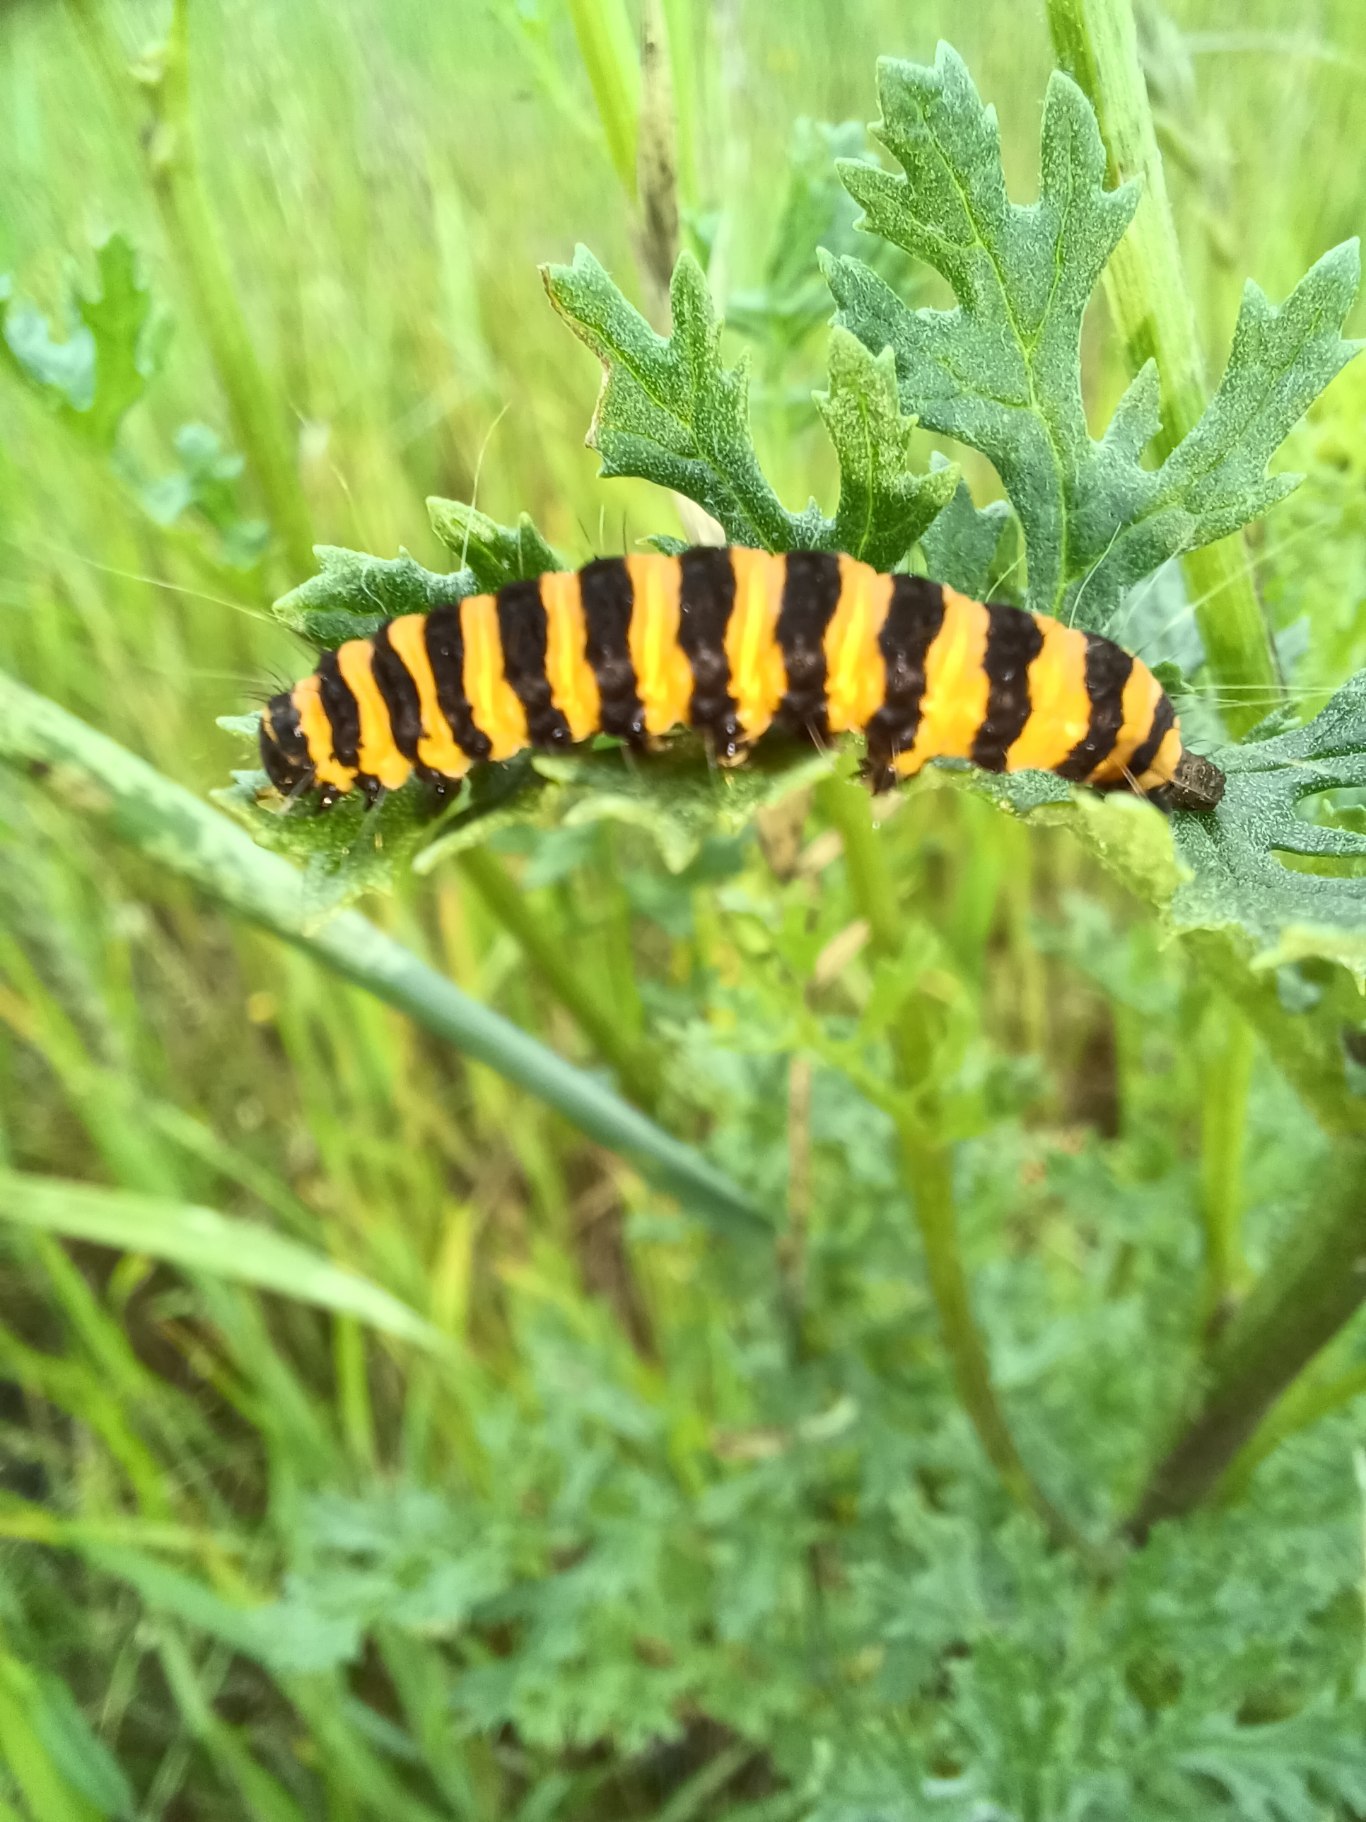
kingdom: Animalia
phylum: Arthropoda
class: Insecta
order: Lepidoptera
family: Erebidae
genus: Tyria
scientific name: Tyria jacobaeae
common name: Blodplet
